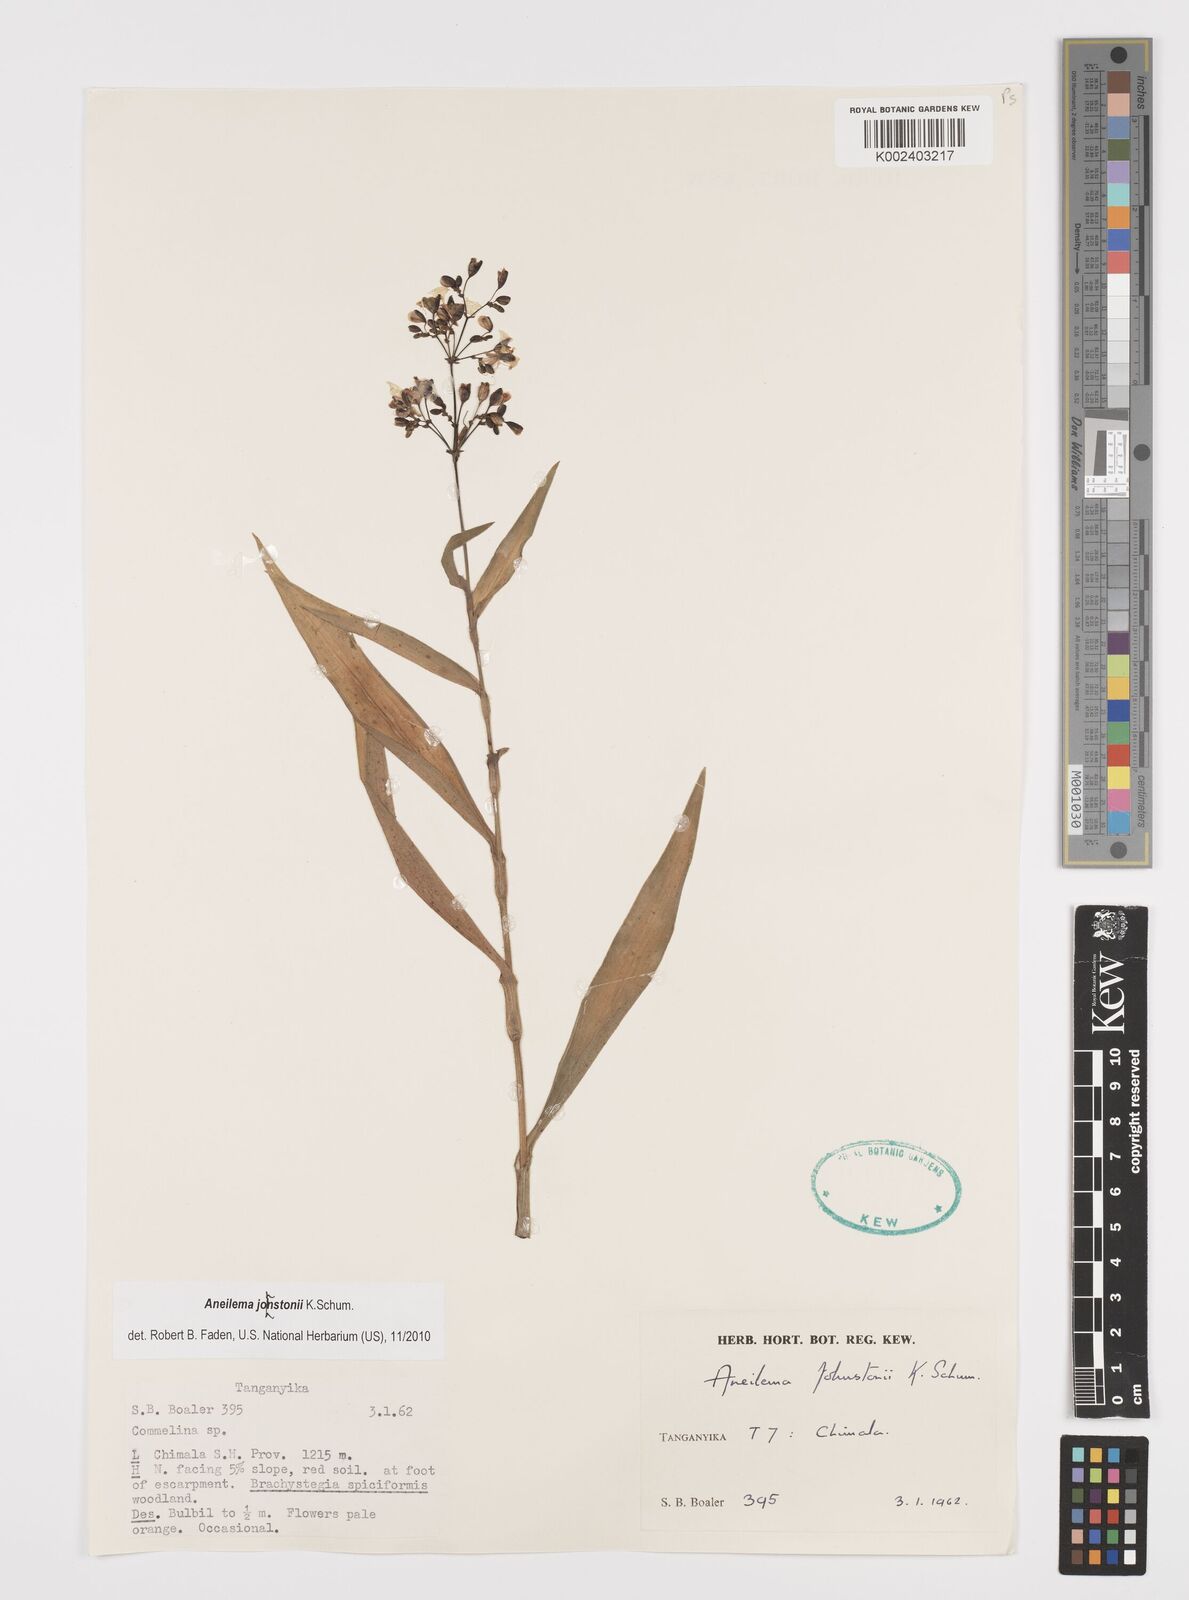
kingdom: Plantae
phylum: Tracheophyta
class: Liliopsida
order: Commelinales
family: Commelinaceae
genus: Aneilema
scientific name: Aneilema johnstonii
